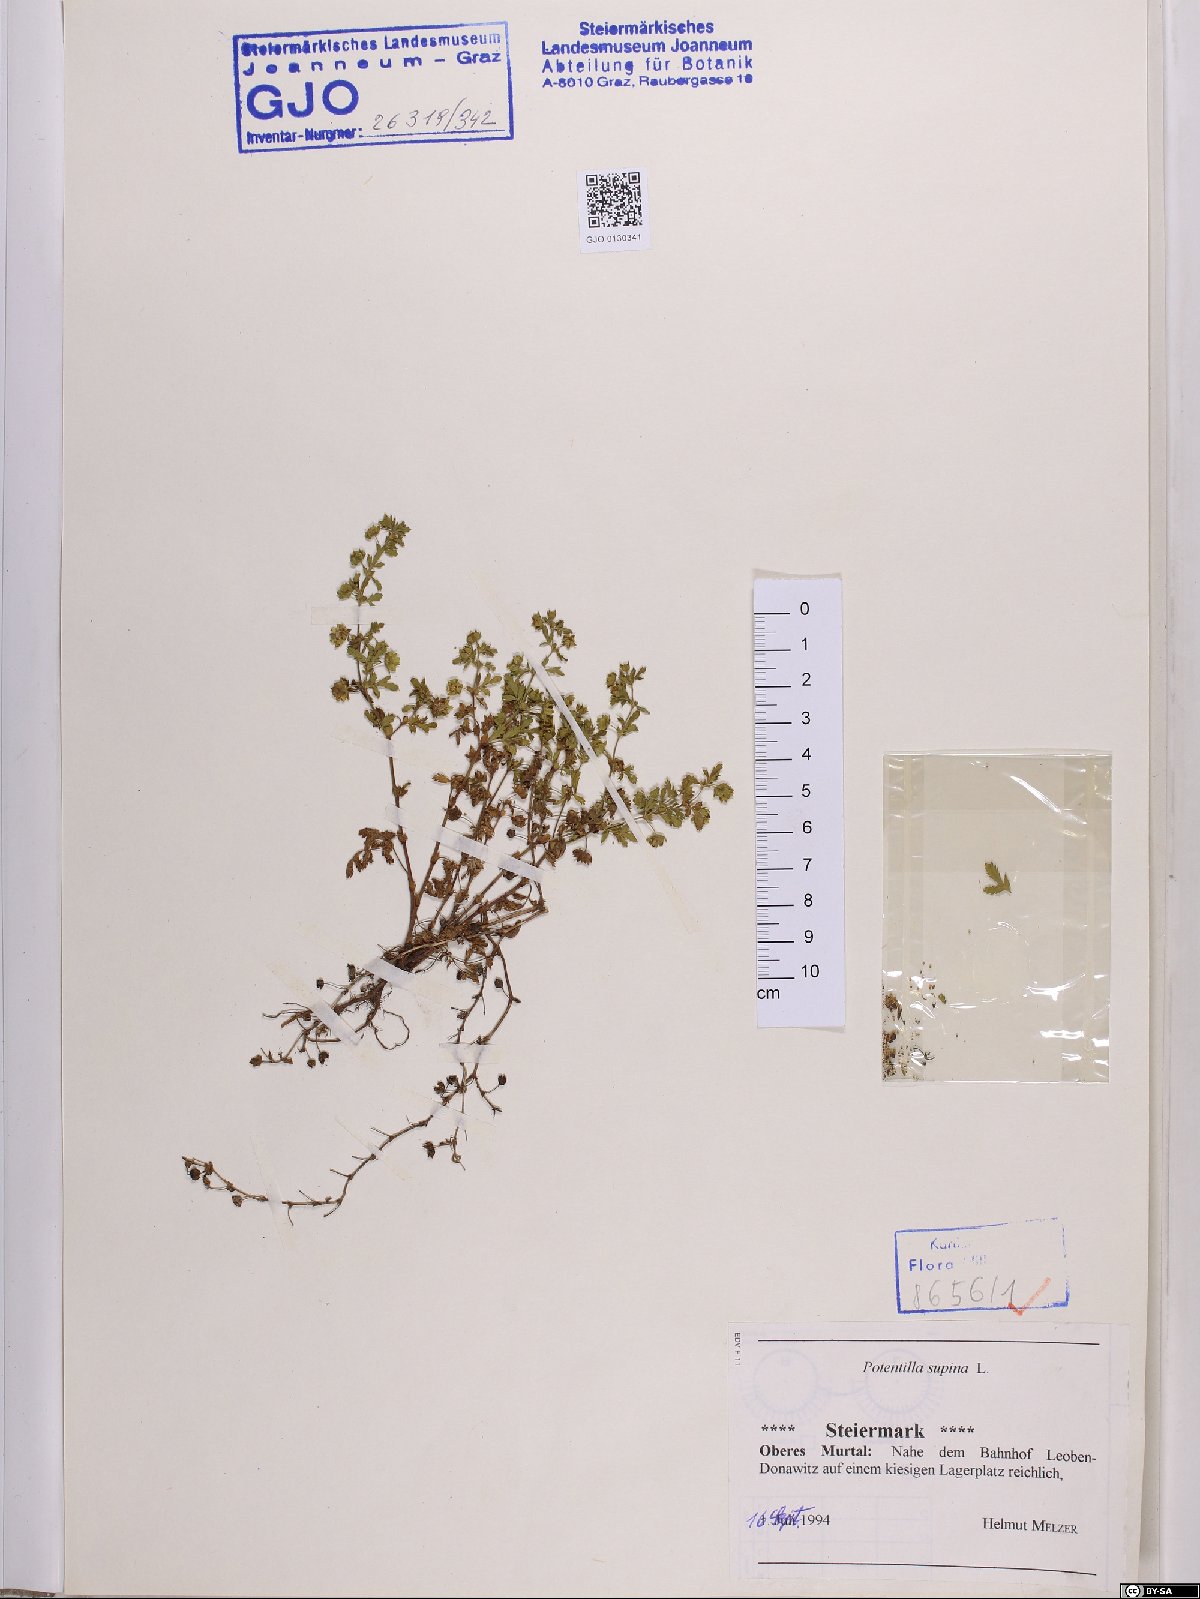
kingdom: Plantae
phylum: Tracheophyta
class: Magnoliopsida
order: Rosales
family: Rosaceae
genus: Potentilla
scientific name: Potentilla supina
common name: Prostrate cinquefoil
